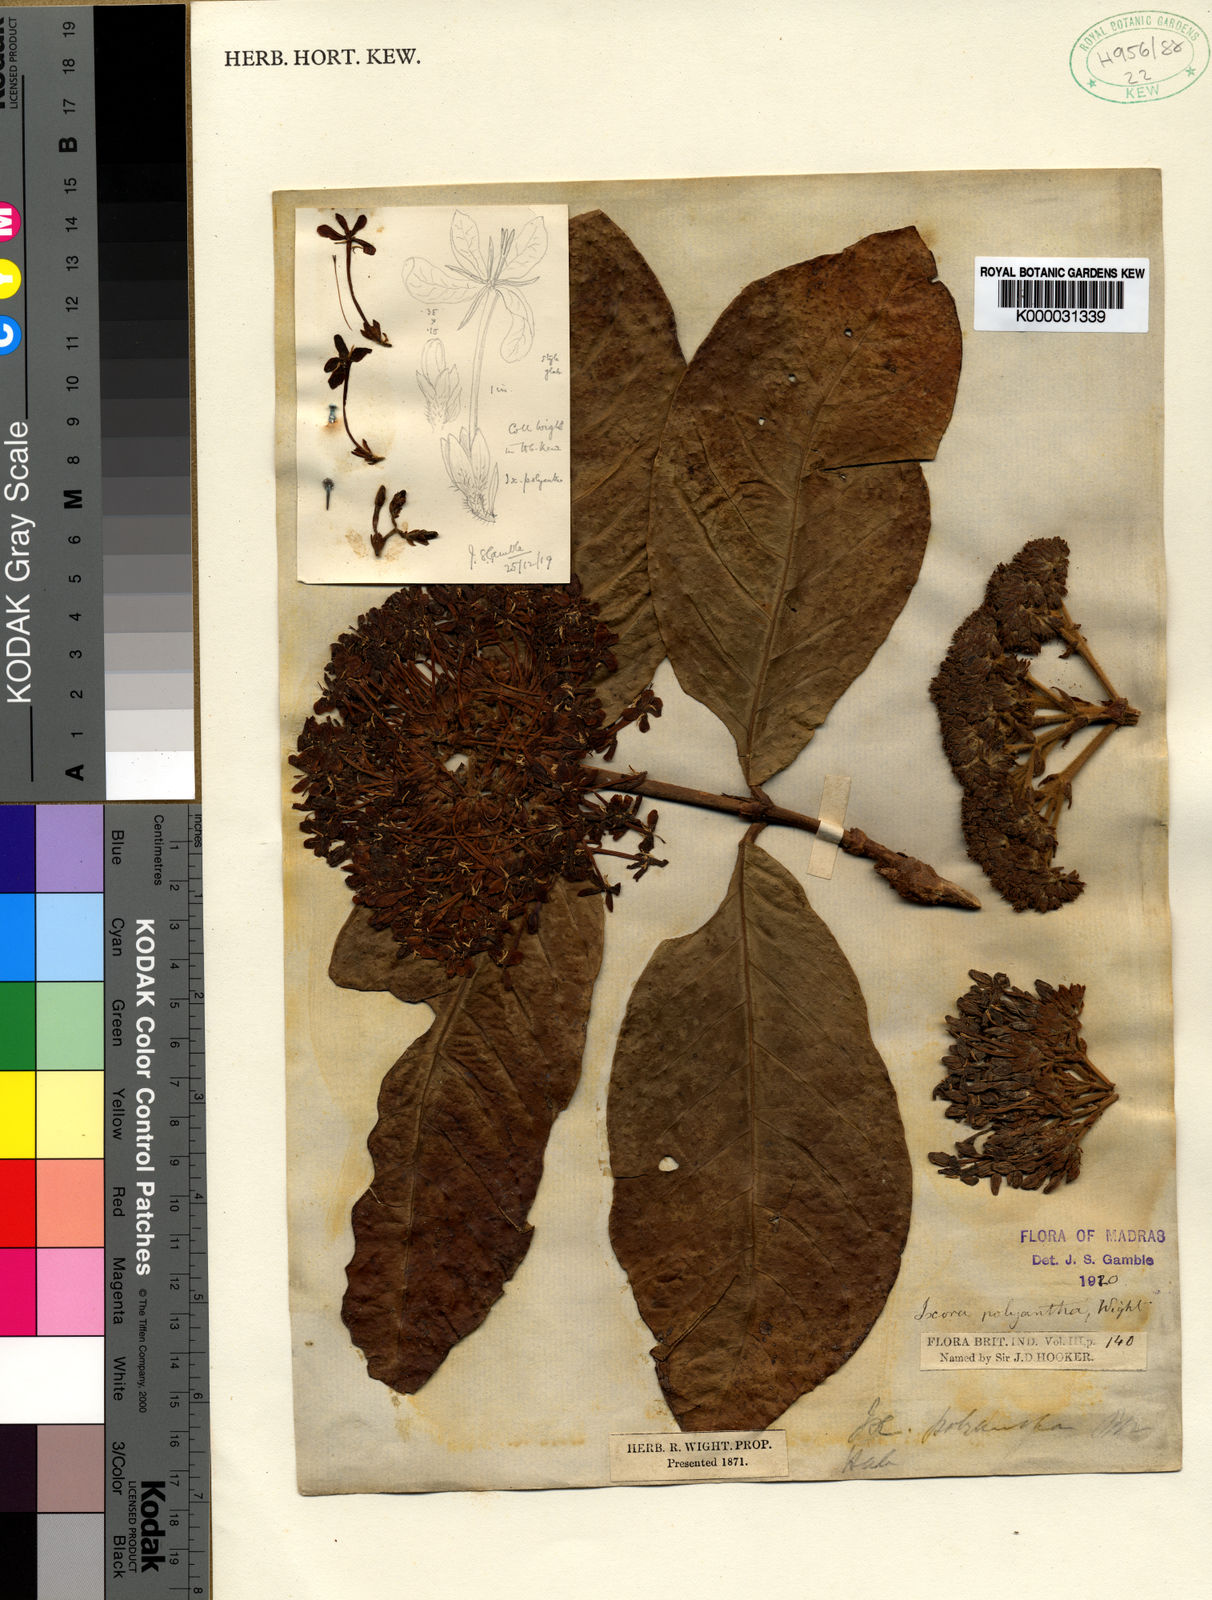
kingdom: Plantae
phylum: Tracheophyta
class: Magnoliopsida
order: Gentianales
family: Rubiaceae
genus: Ixora
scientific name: Ixora polyantha
